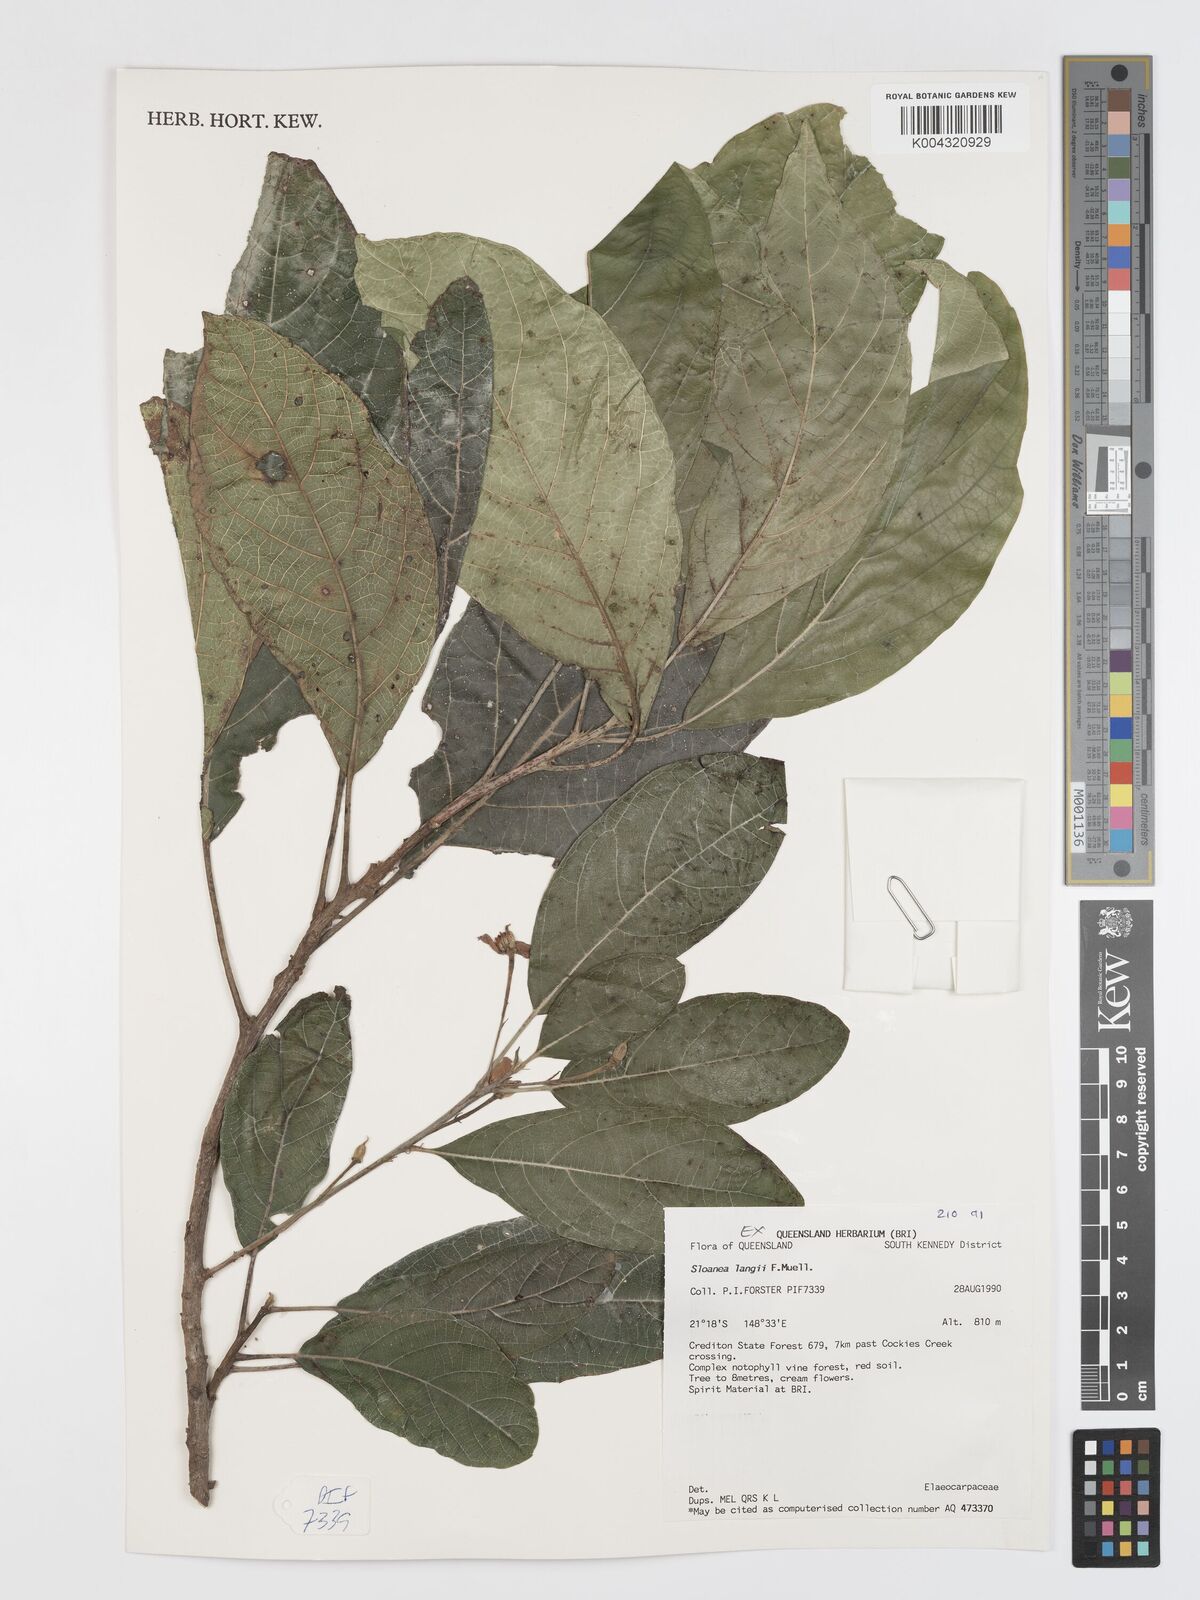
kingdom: Plantae
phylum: Tracheophyta
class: Magnoliopsida
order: Oxalidales
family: Elaeocarpaceae
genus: Sloanea
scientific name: Sloanea langii
